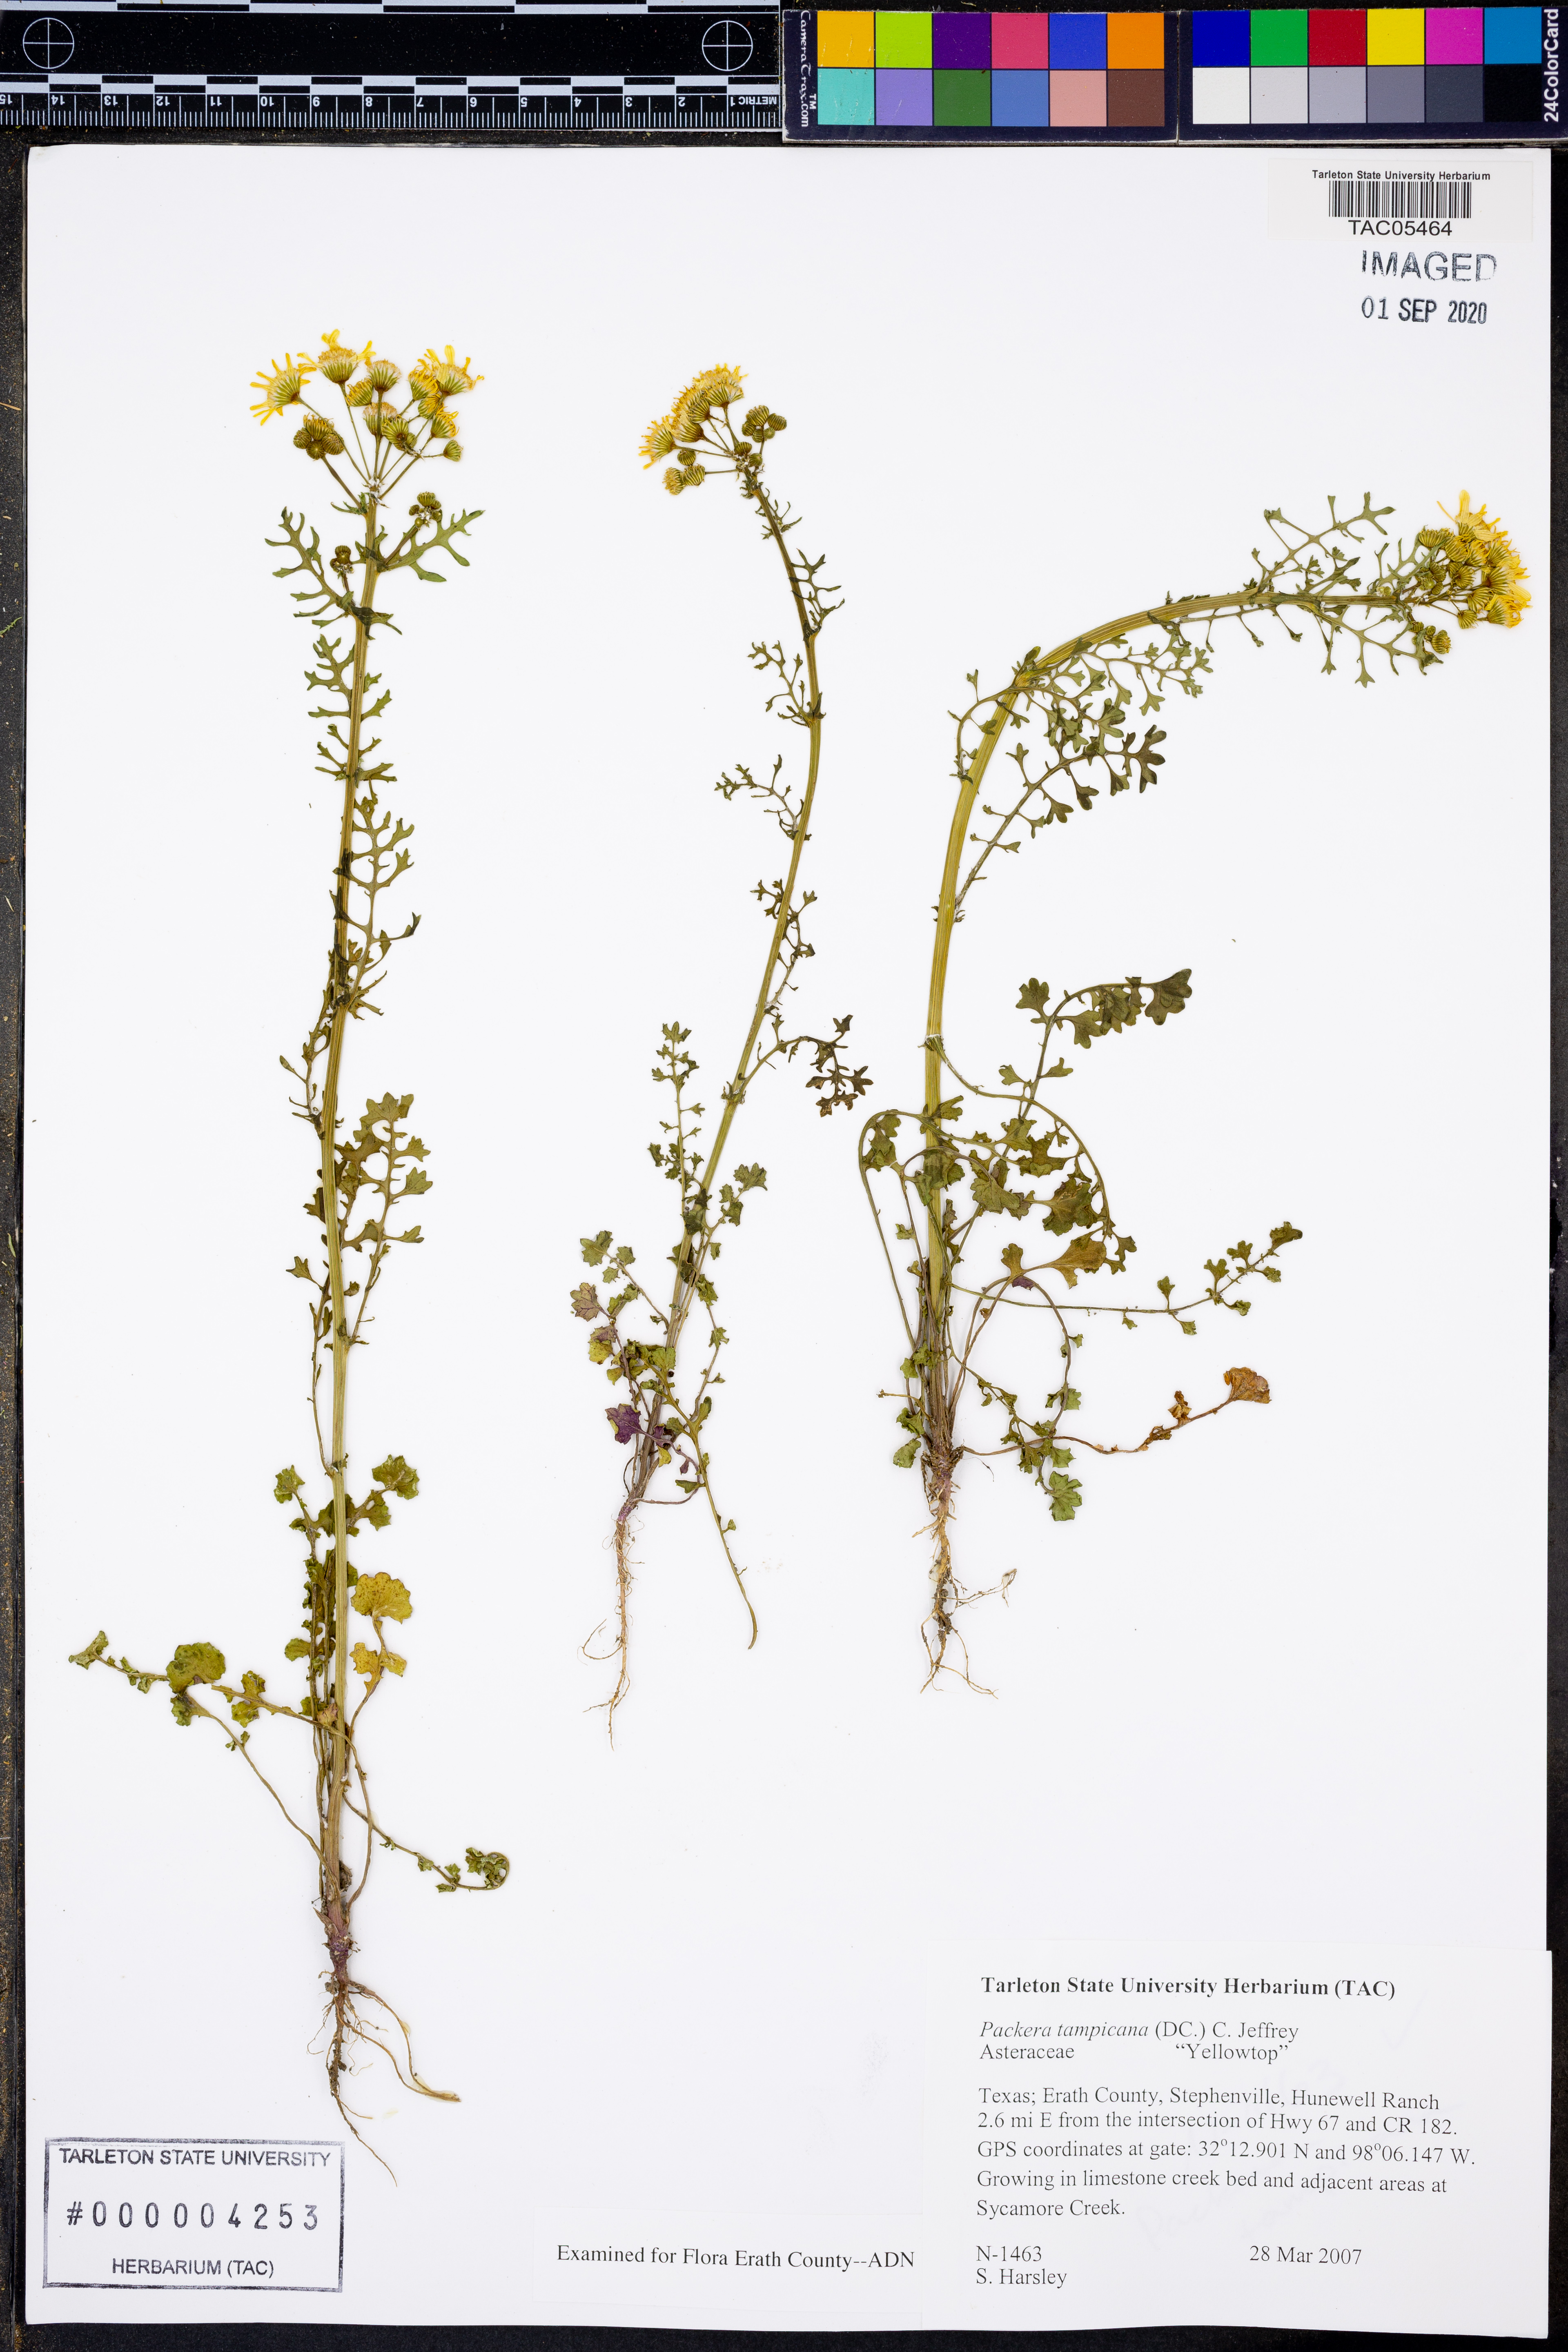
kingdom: Plantae
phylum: Tracheophyta
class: Magnoliopsida
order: Asterales
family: Asteraceae
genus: Packera
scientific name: Packera tampicana
